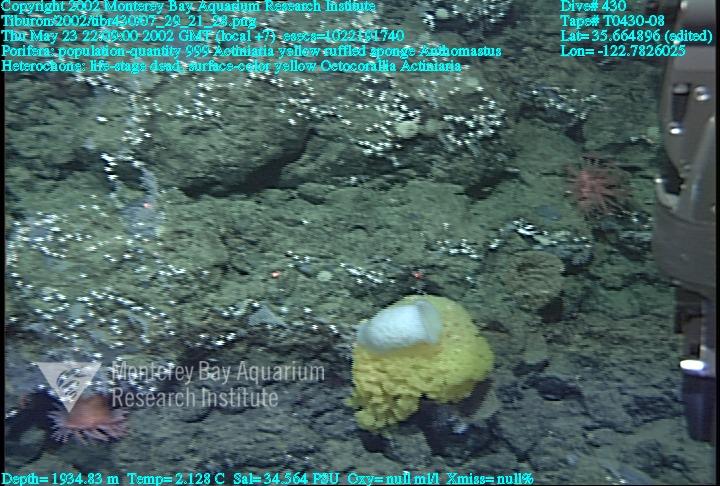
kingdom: Animalia
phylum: Porifera
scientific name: Porifera
